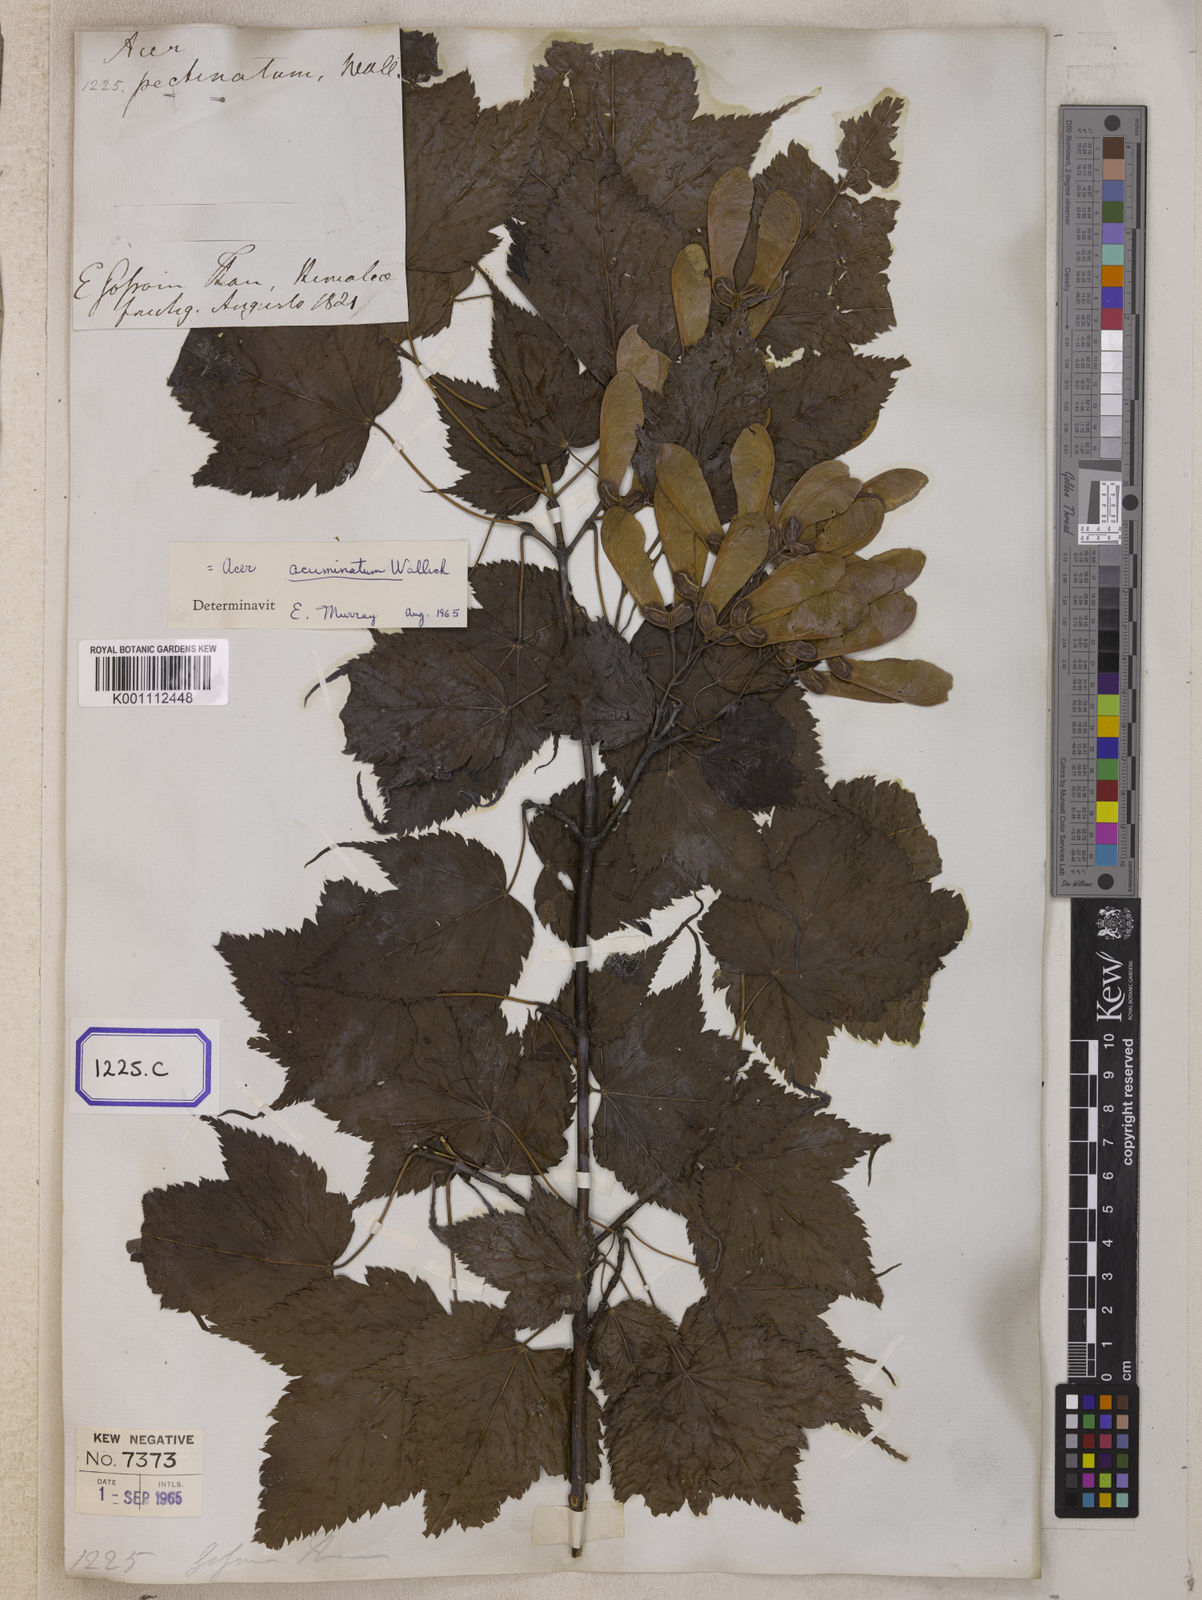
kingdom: Plantae
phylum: Tracheophyta
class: Magnoliopsida
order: Sapindales
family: Sapindaceae
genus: Acer
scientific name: Acer caudatum
